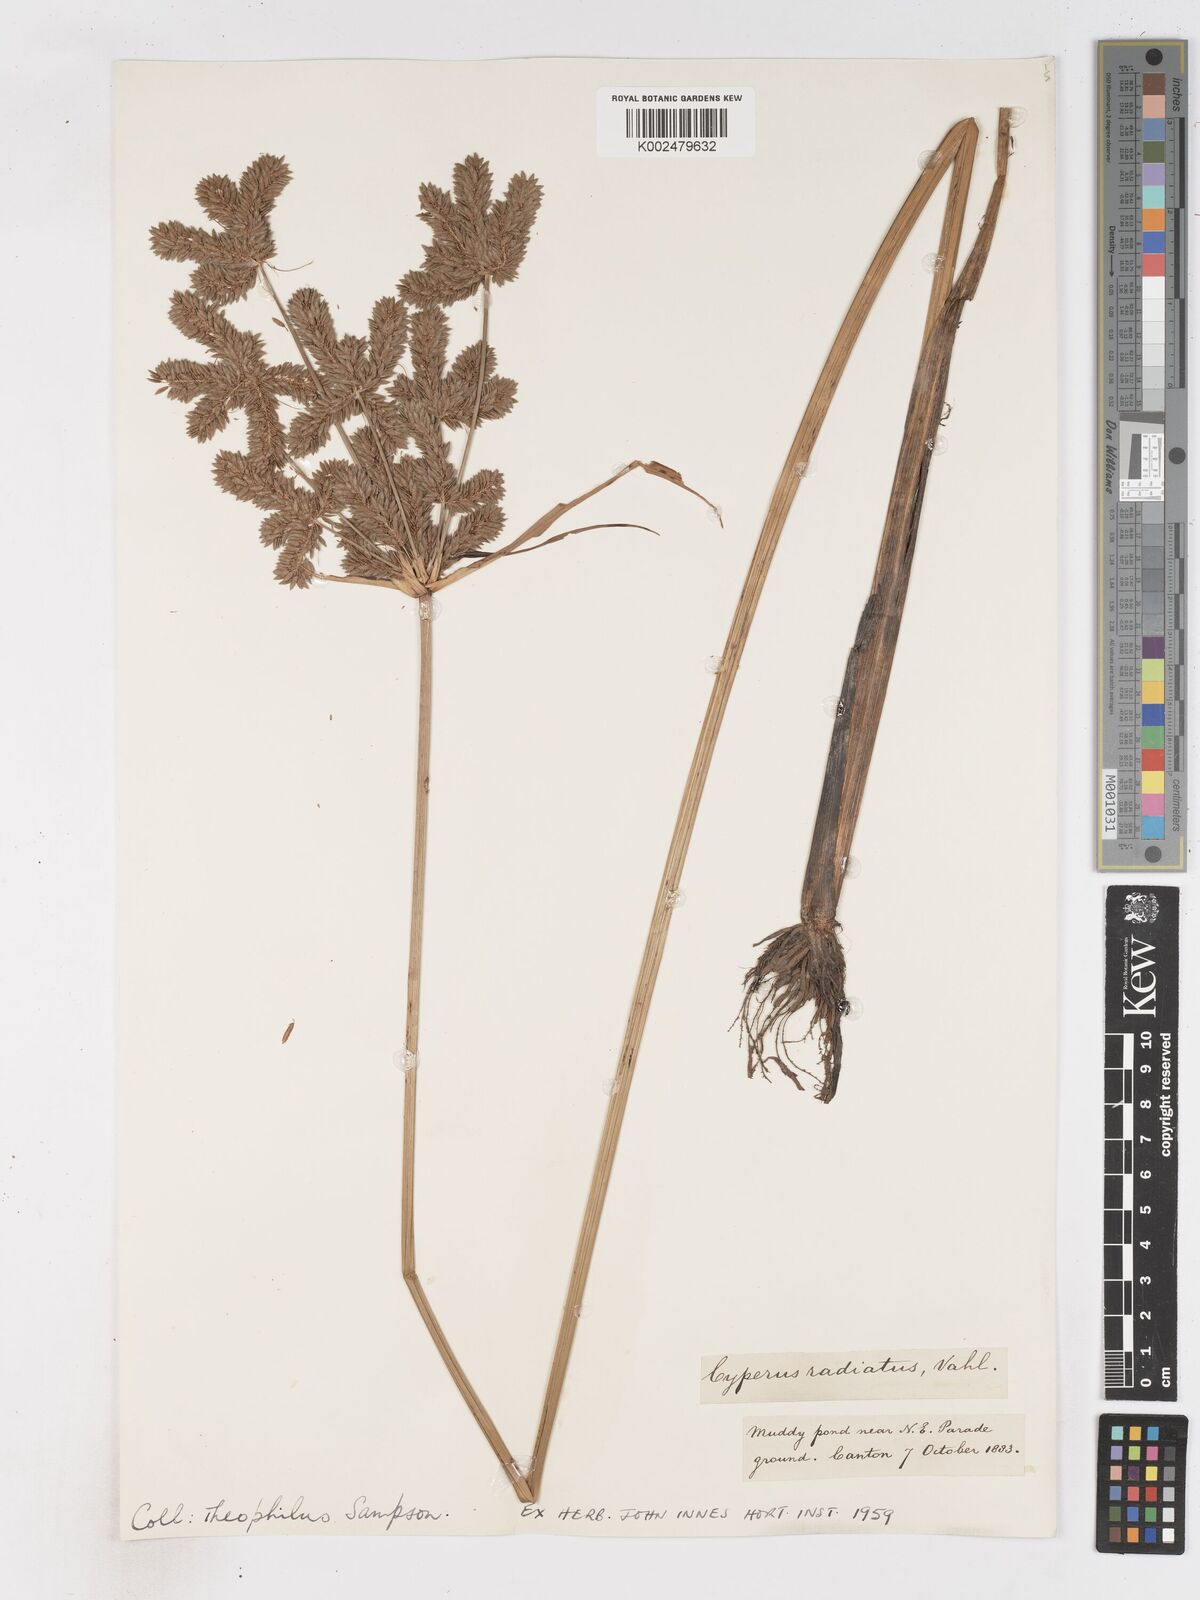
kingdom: Plantae
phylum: Tracheophyta
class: Liliopsida
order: Poales
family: Cyperaceae
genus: Cyperus
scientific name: Cyperus imbricatus
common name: Shingle flatsedge
